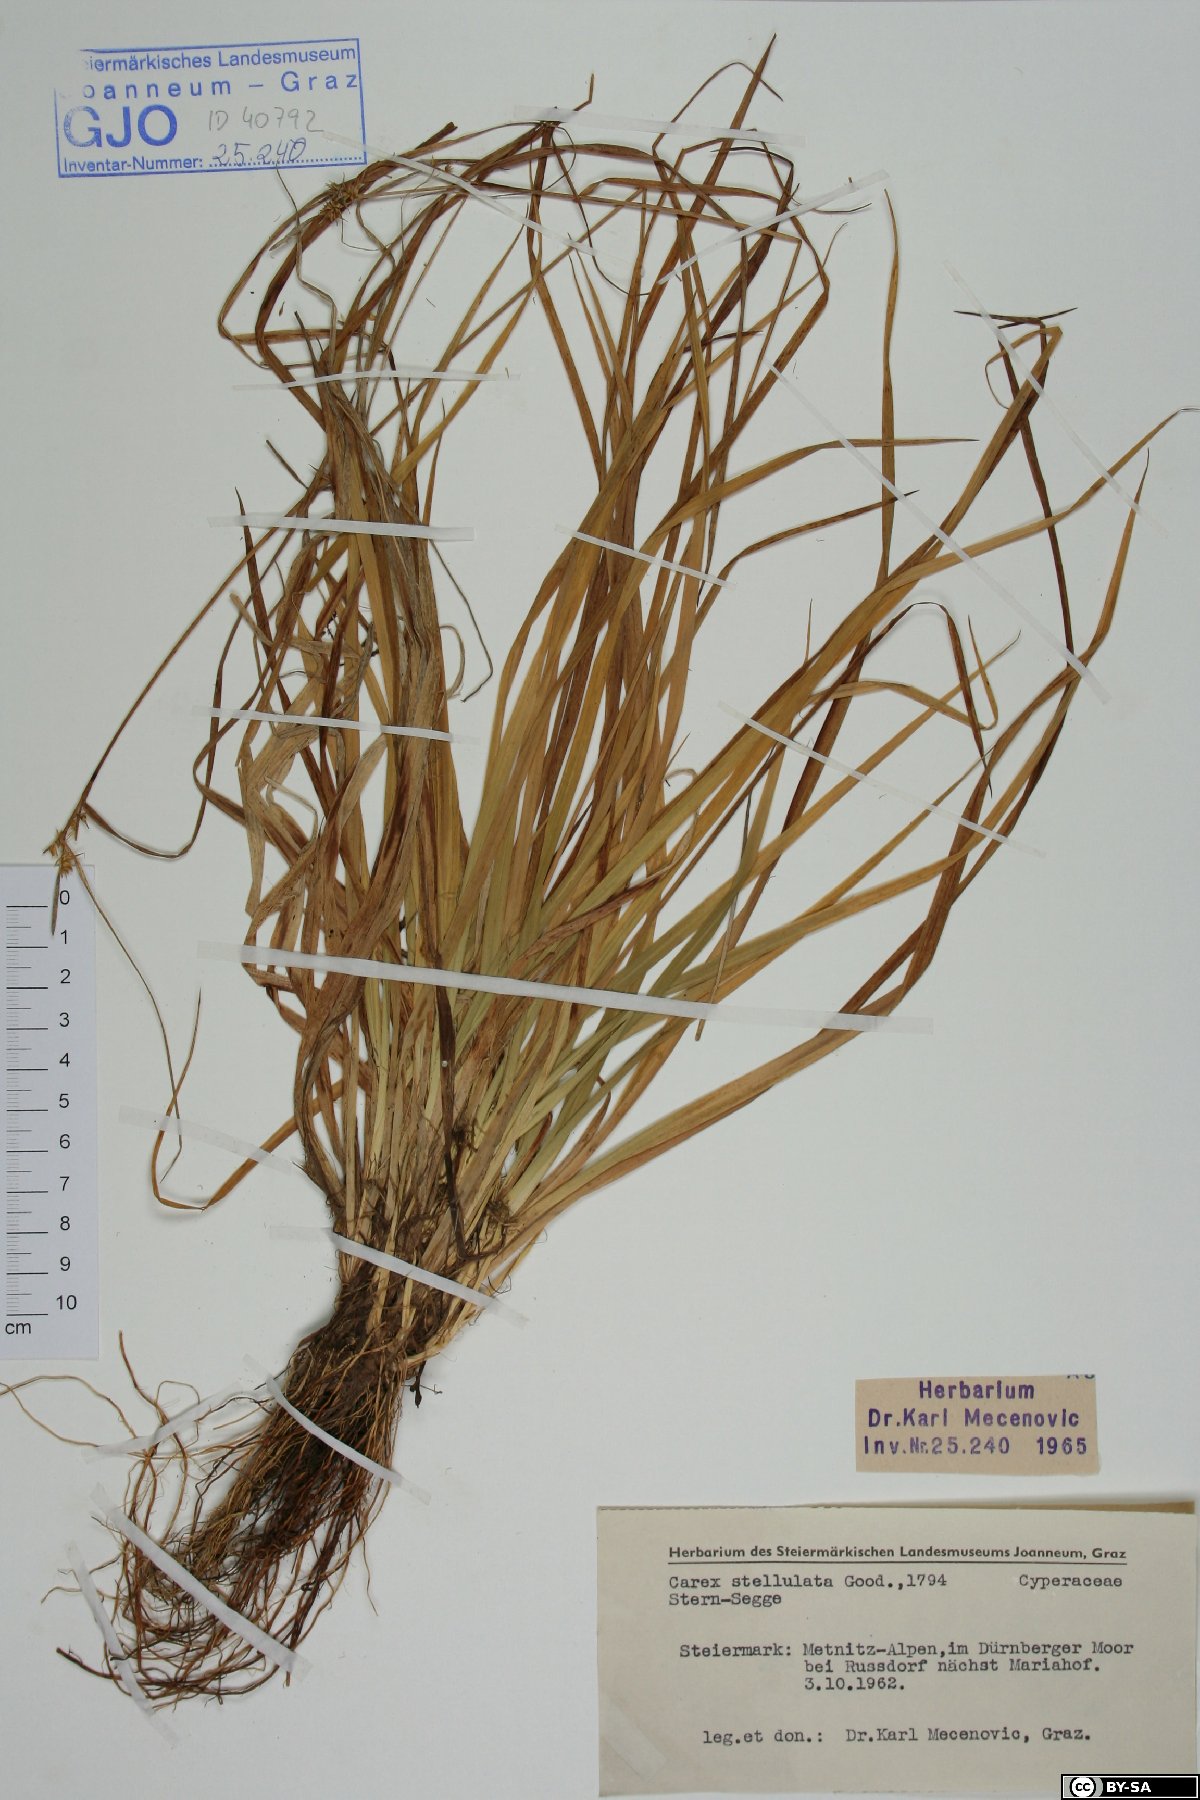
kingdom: Plantae
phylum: Tracheophyta
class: Liliopsida
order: Poales
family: Cyperaceae
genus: Carex
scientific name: Carex echinata
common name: Star sedge
